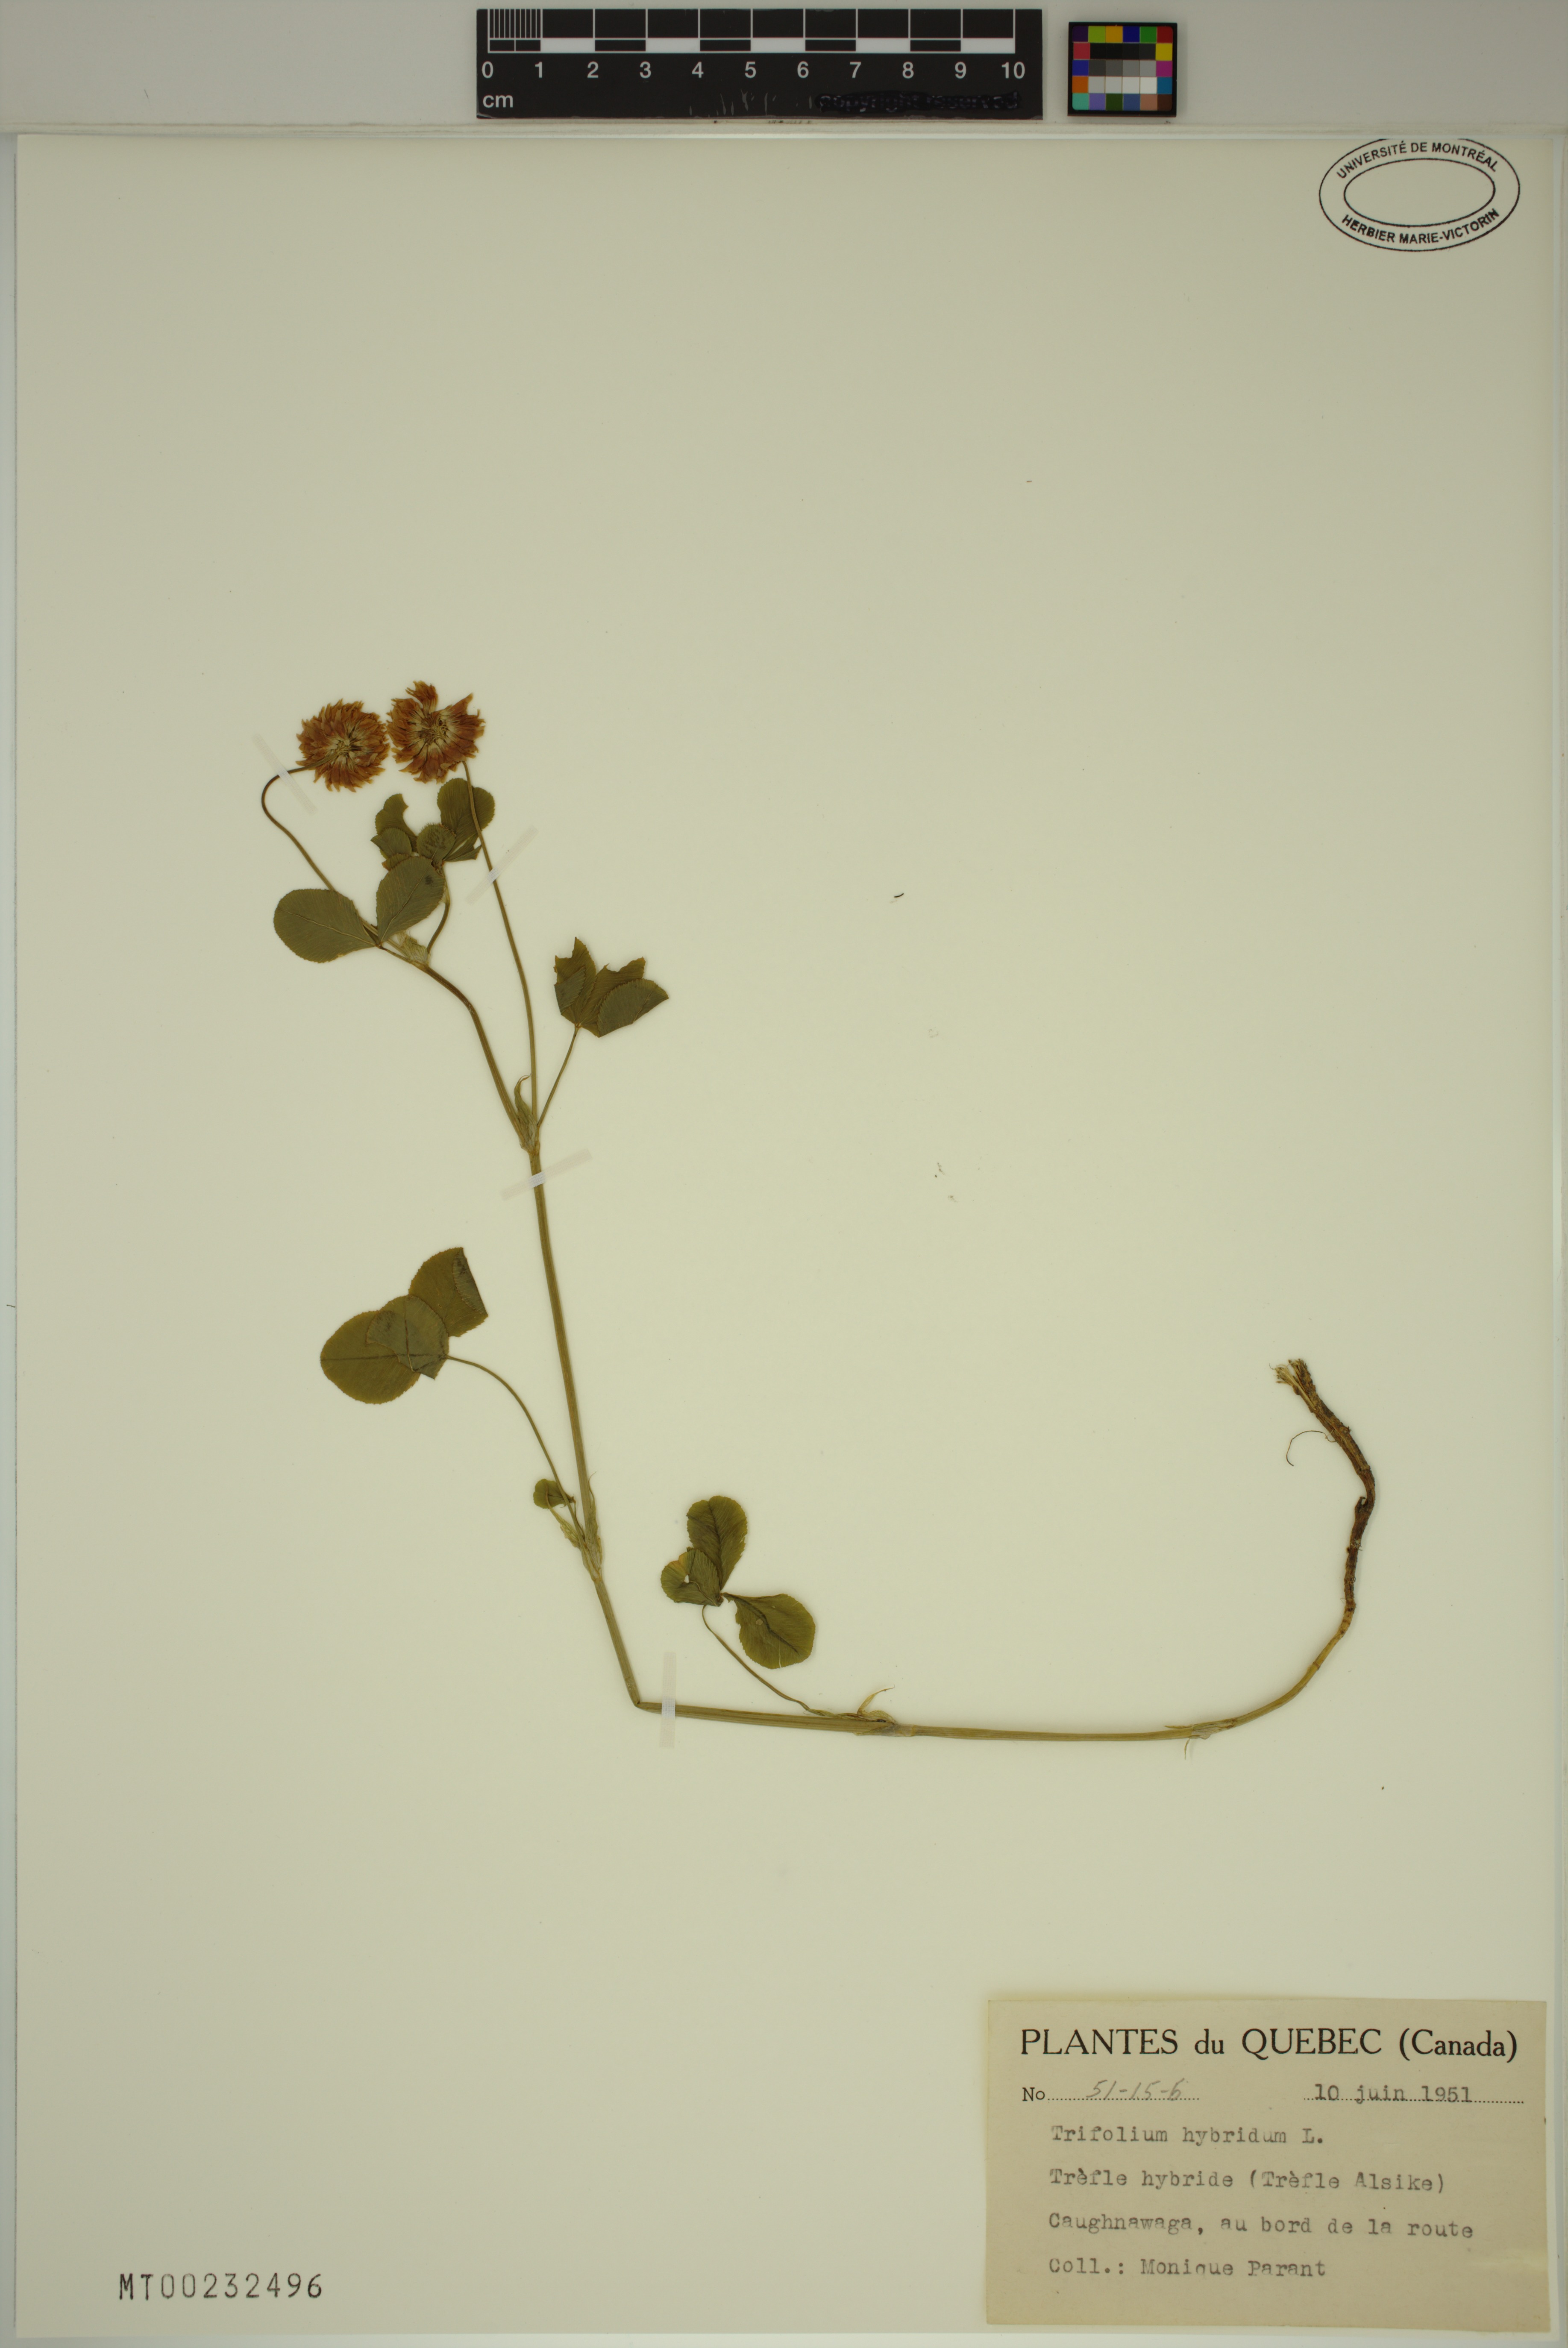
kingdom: Plantae
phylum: Tracheophyta
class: Magnoliopsida
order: Fabales
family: Fabaceae
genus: Trifolium
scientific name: Trifolium hybridum
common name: Alsike clover
